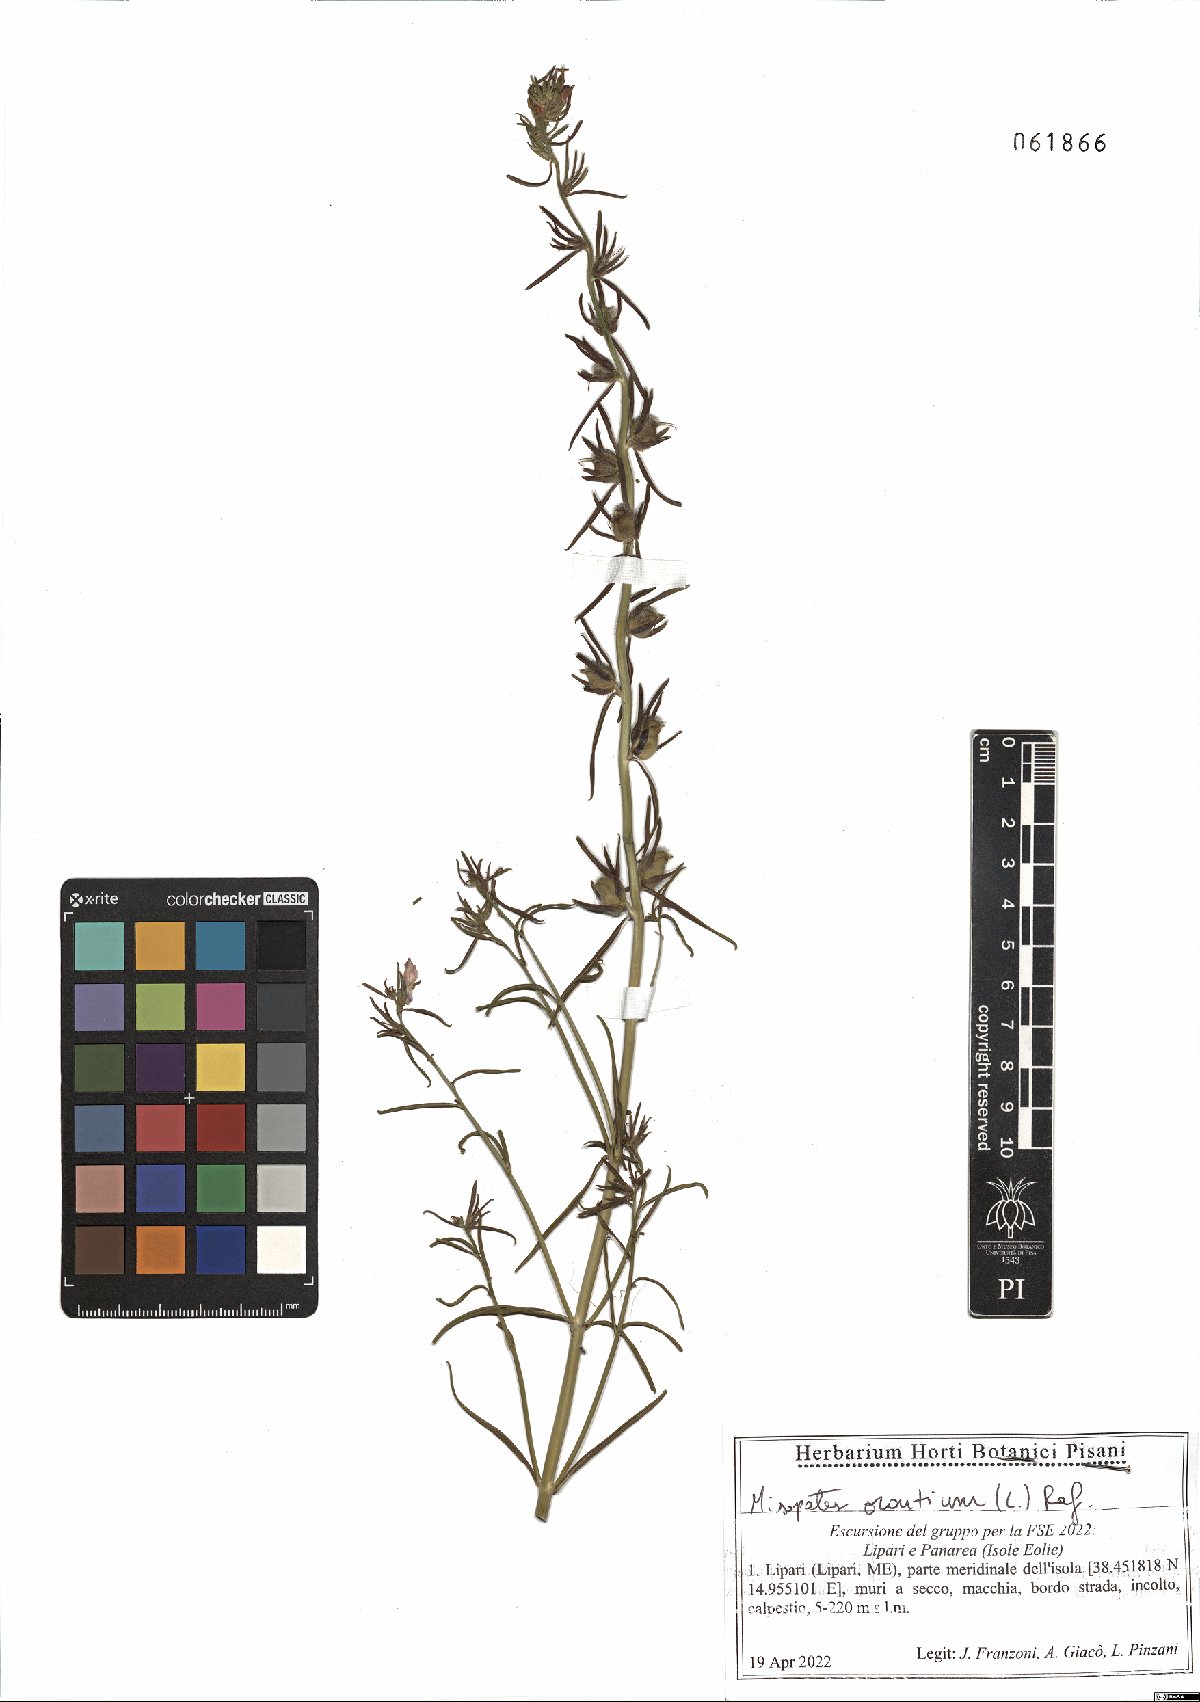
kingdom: Plantae
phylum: Tracheophyta
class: Magnoliopsida
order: Lamiales
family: Plantaginaceae
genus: Misopates
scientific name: Misopates orontium
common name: Weasel's-snout
